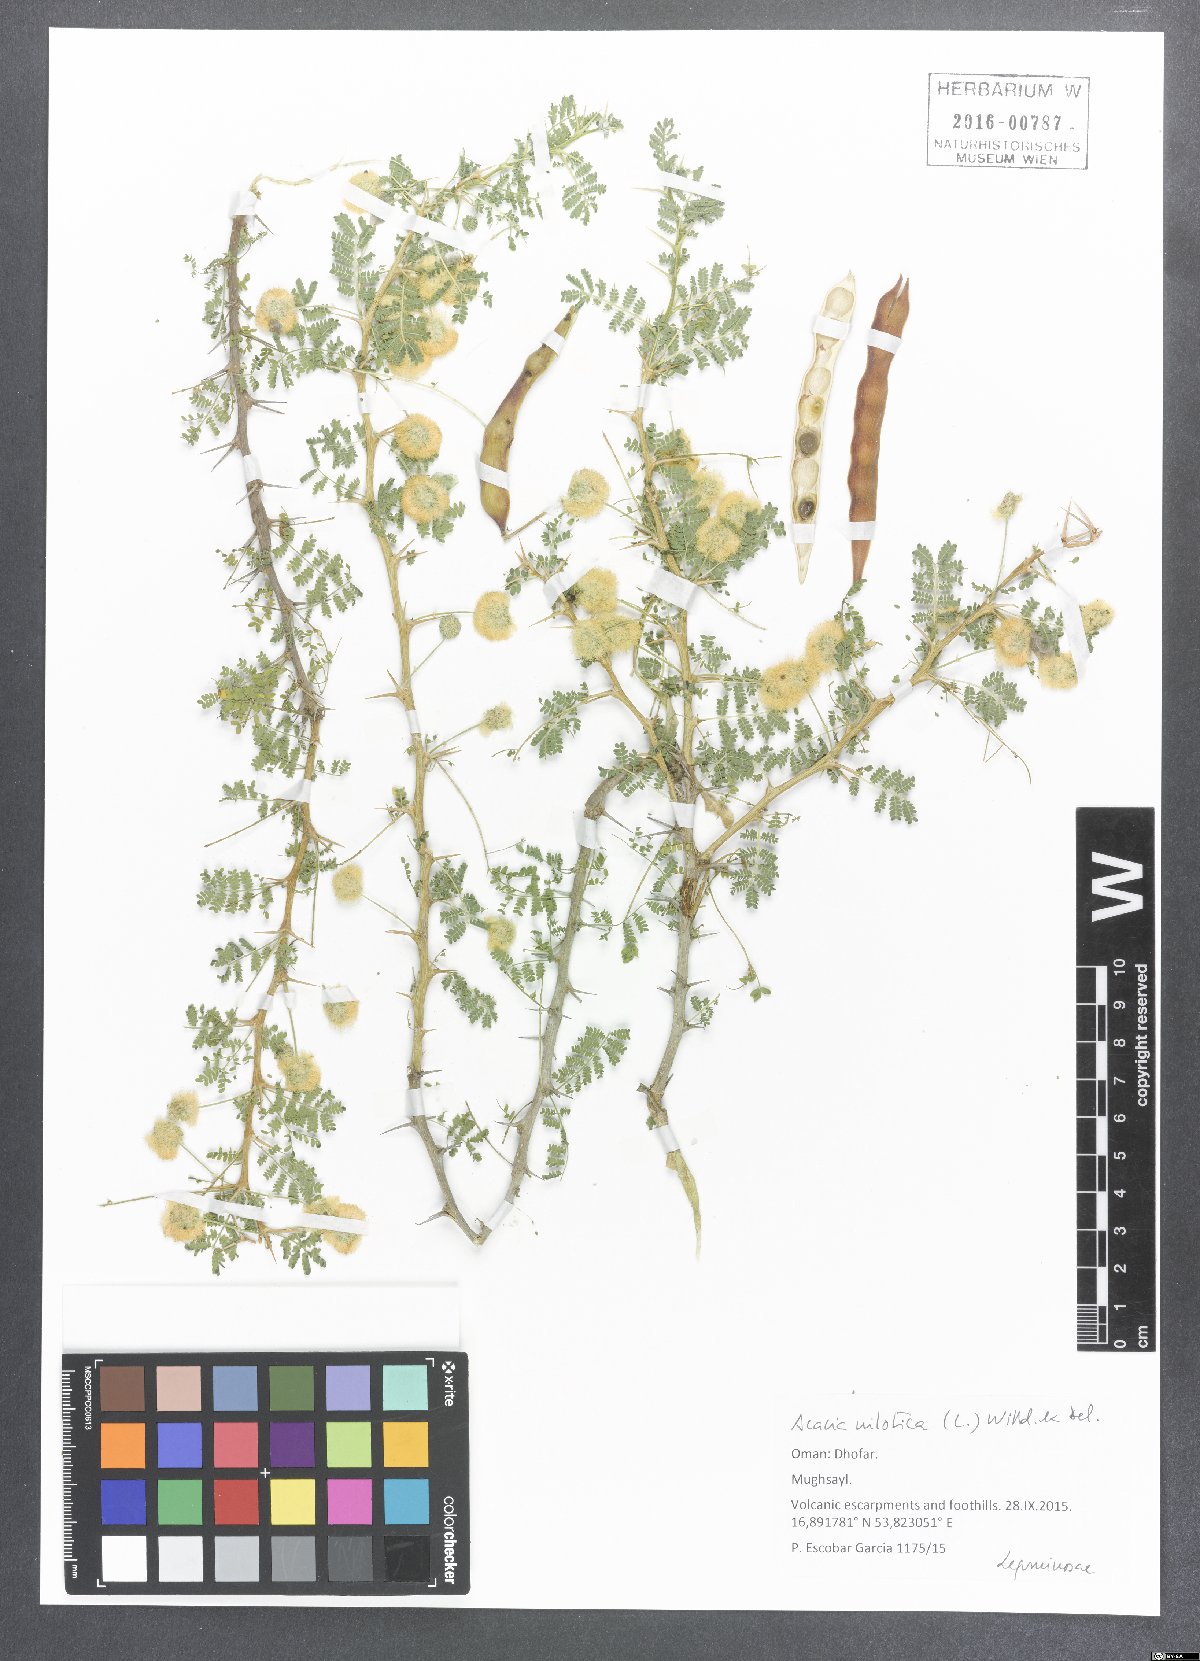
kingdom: Plantae
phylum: Tracheophyta
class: Magnoliopsida
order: Fabales
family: Fabaceae
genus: Vachellia
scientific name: Vachellia nilotica
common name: Arabic gumtree
